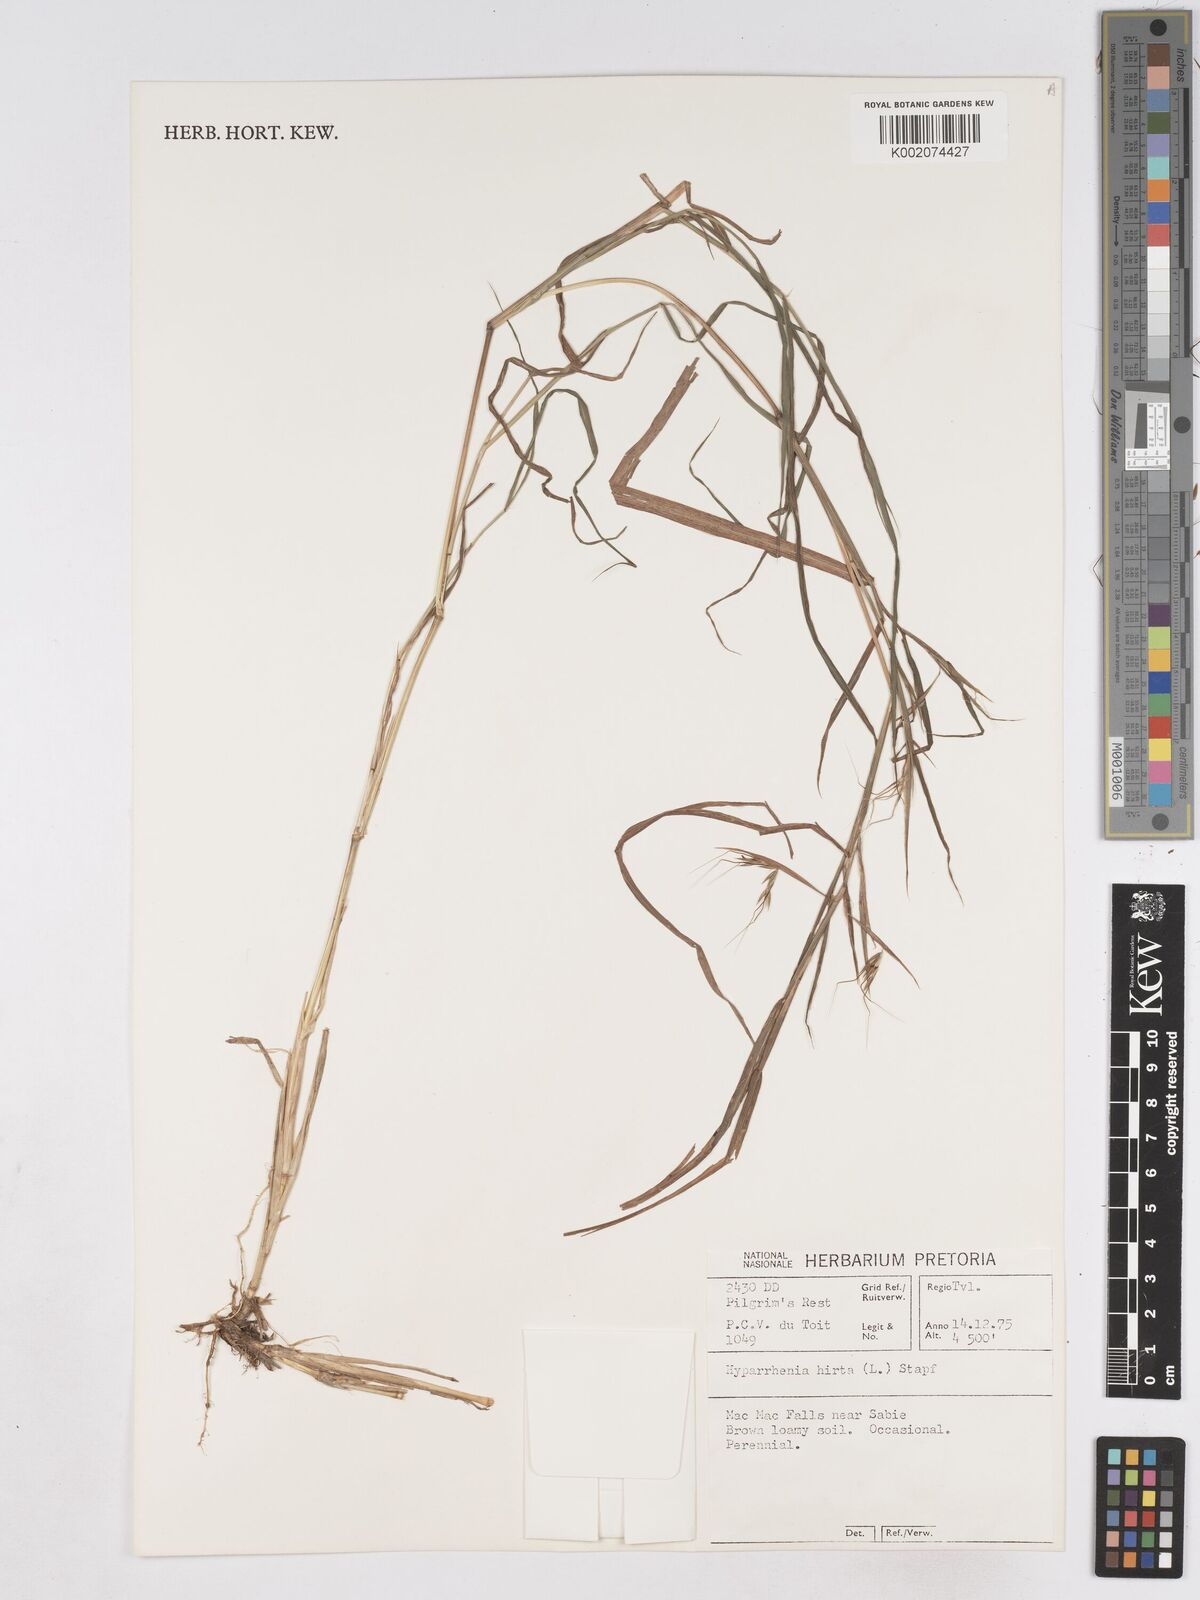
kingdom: Plantae
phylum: Tracheophyta
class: Liliopsida
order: Poales
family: Poaceae
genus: Hyparrhenia
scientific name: Hyparrhenia hirta
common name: Thatching grass
